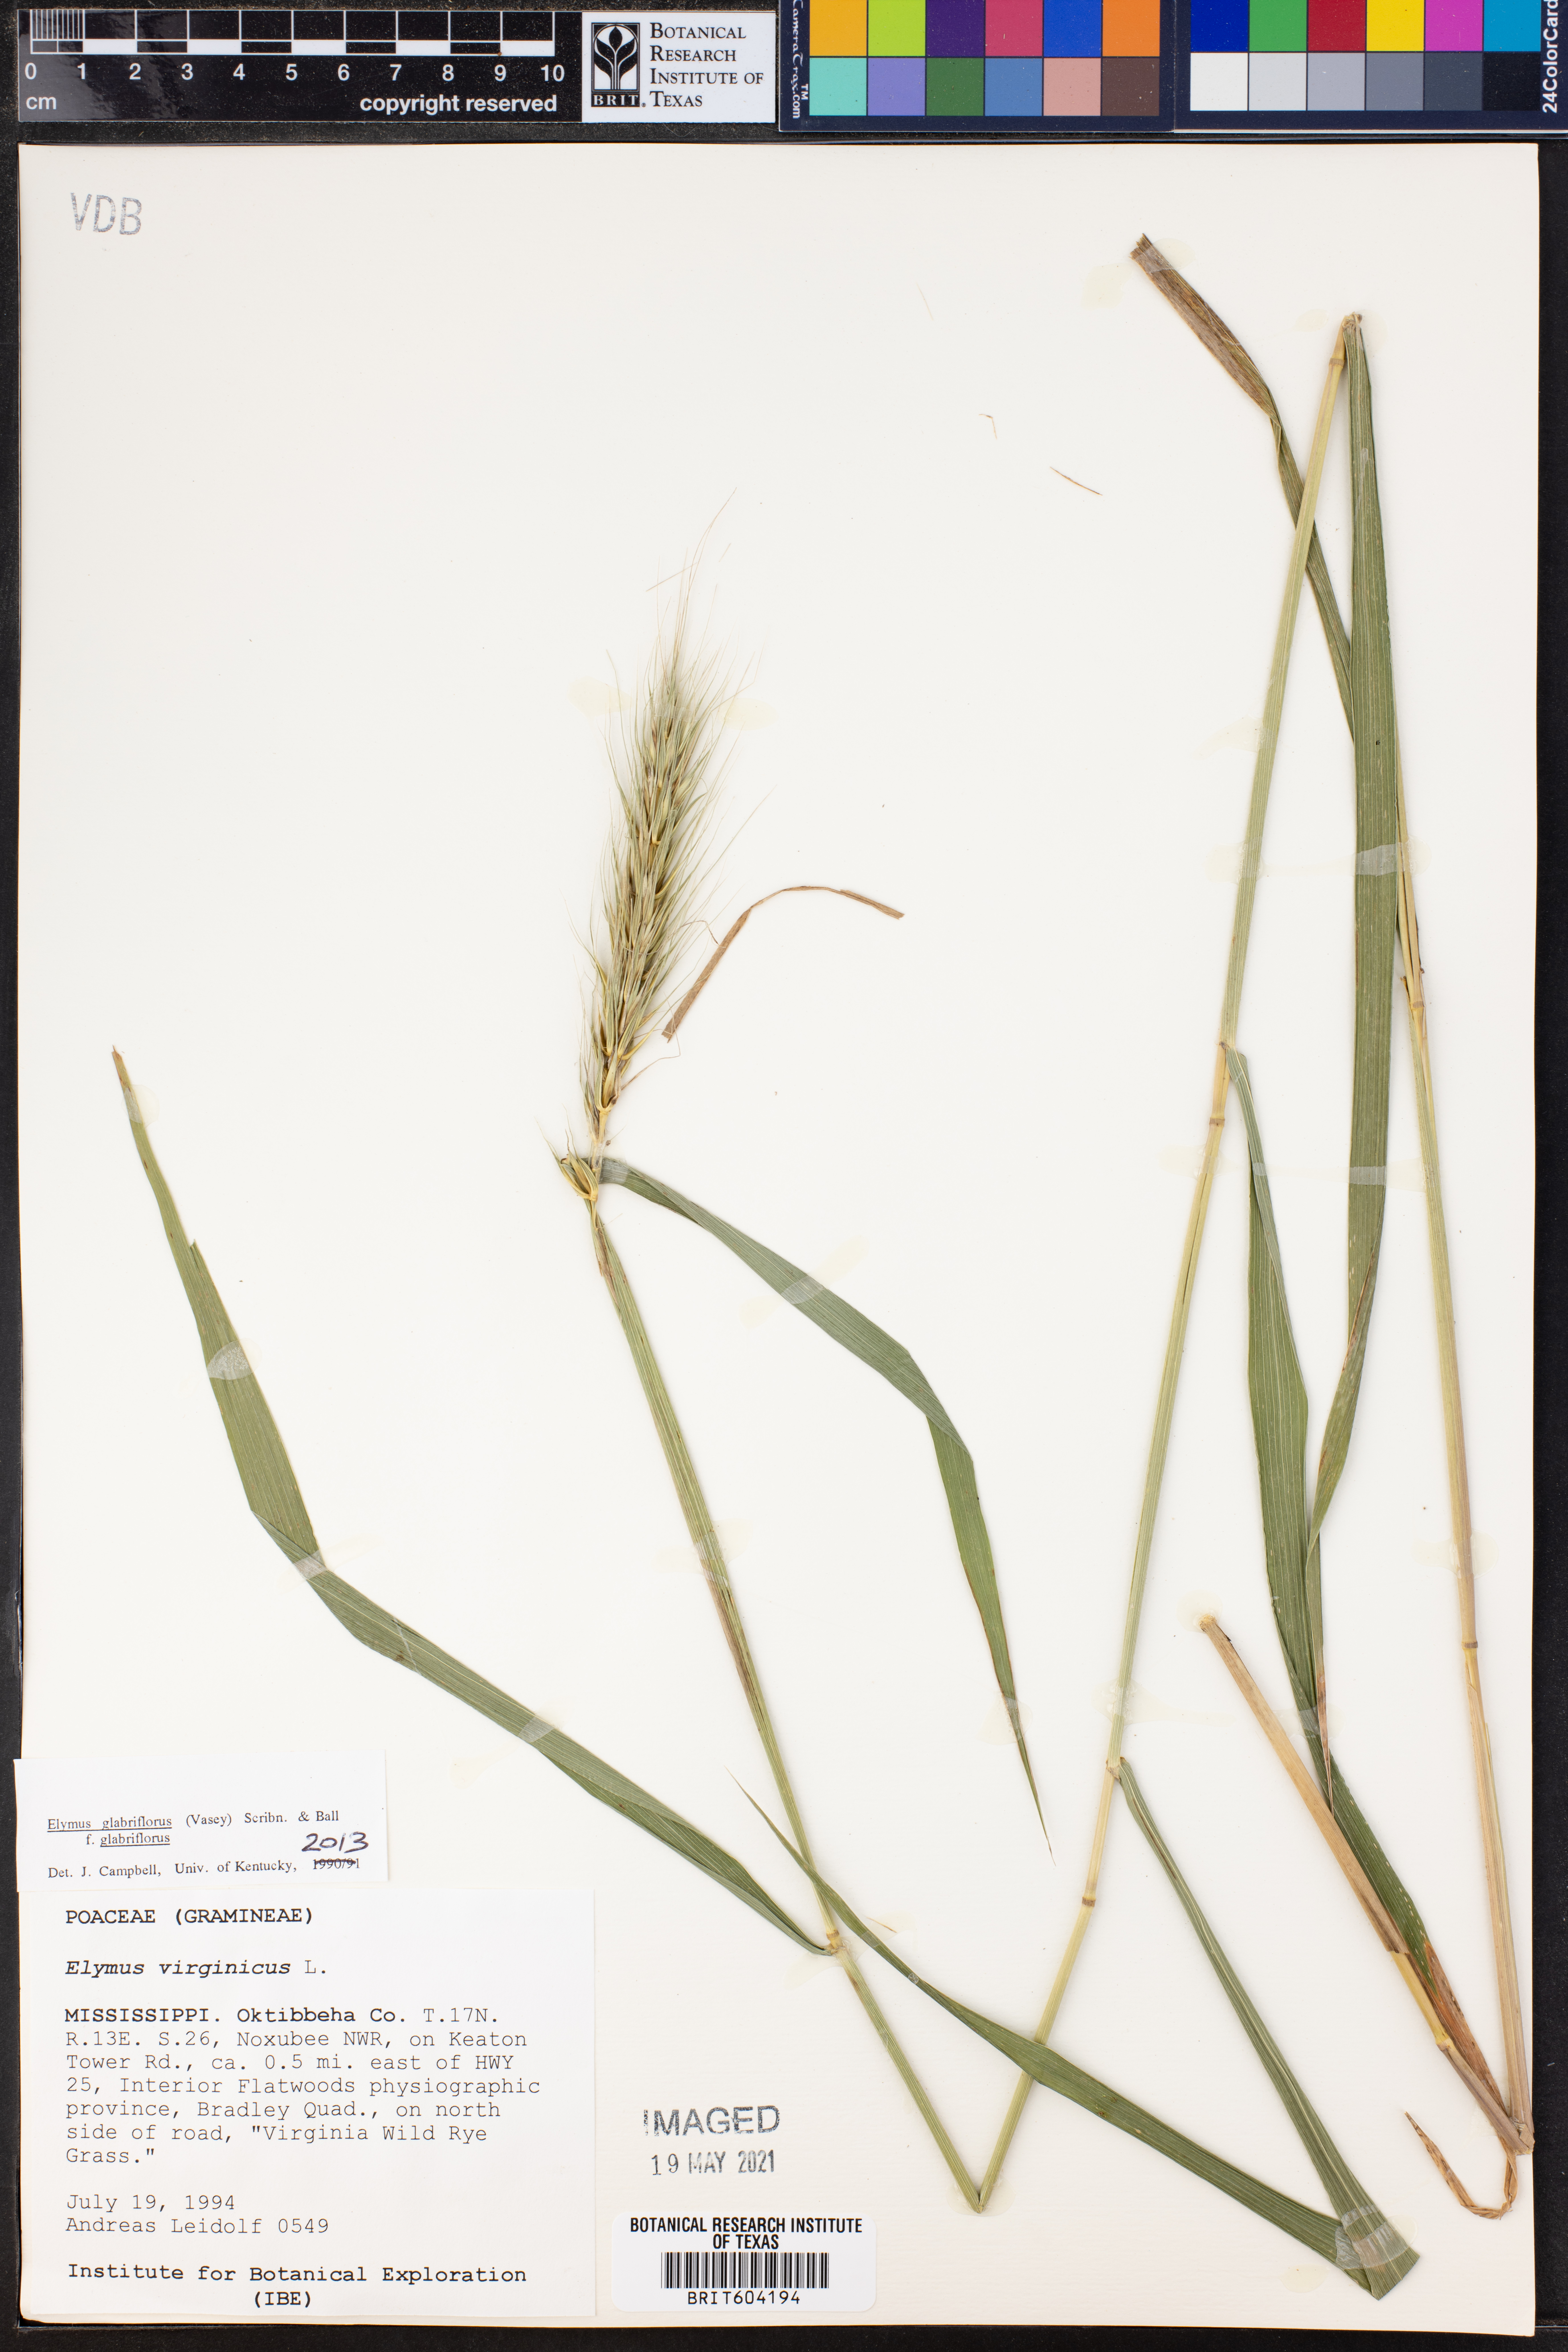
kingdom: Plantae
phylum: Tracheophyta
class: Liliopsida
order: Poales
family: Poaceae
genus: Elymus
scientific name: Elymus virginicus
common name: Common eastern wildrye
